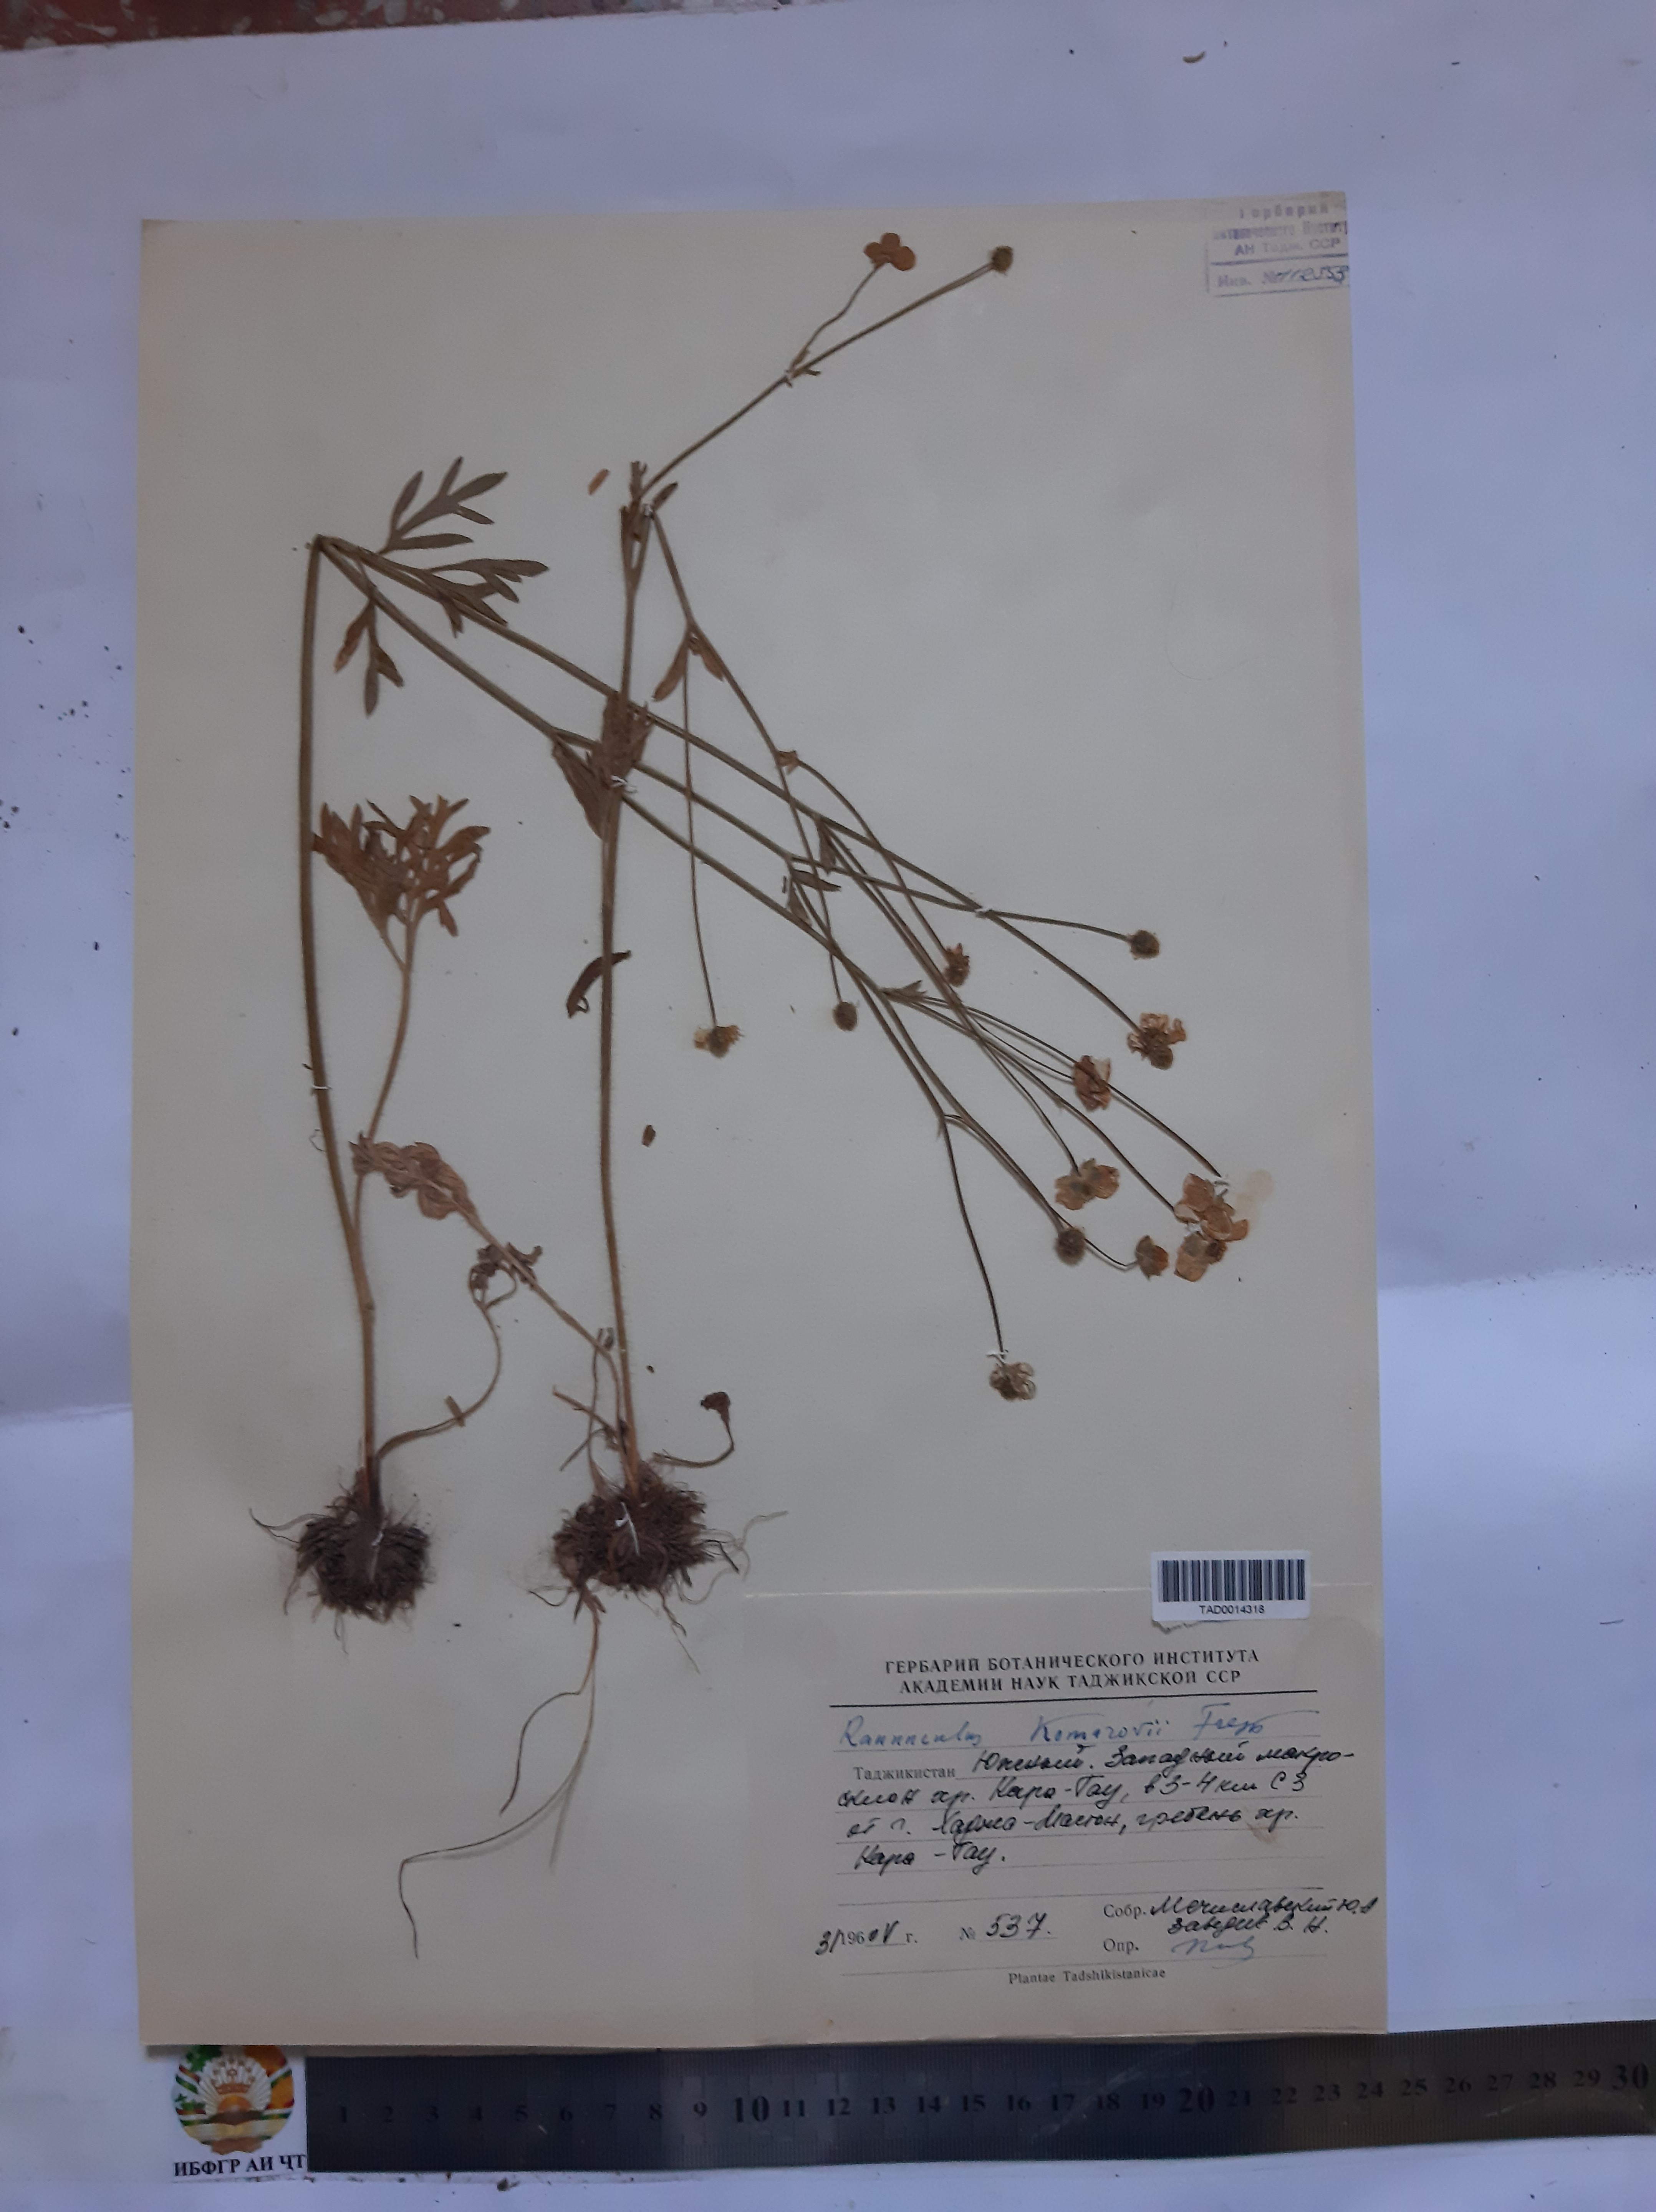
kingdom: Plantae
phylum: Tracheophyta
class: Magnoliopsida
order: Ranunculales
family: Ranunculaceae
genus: Ranunculus
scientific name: Ranunculus komarovii
